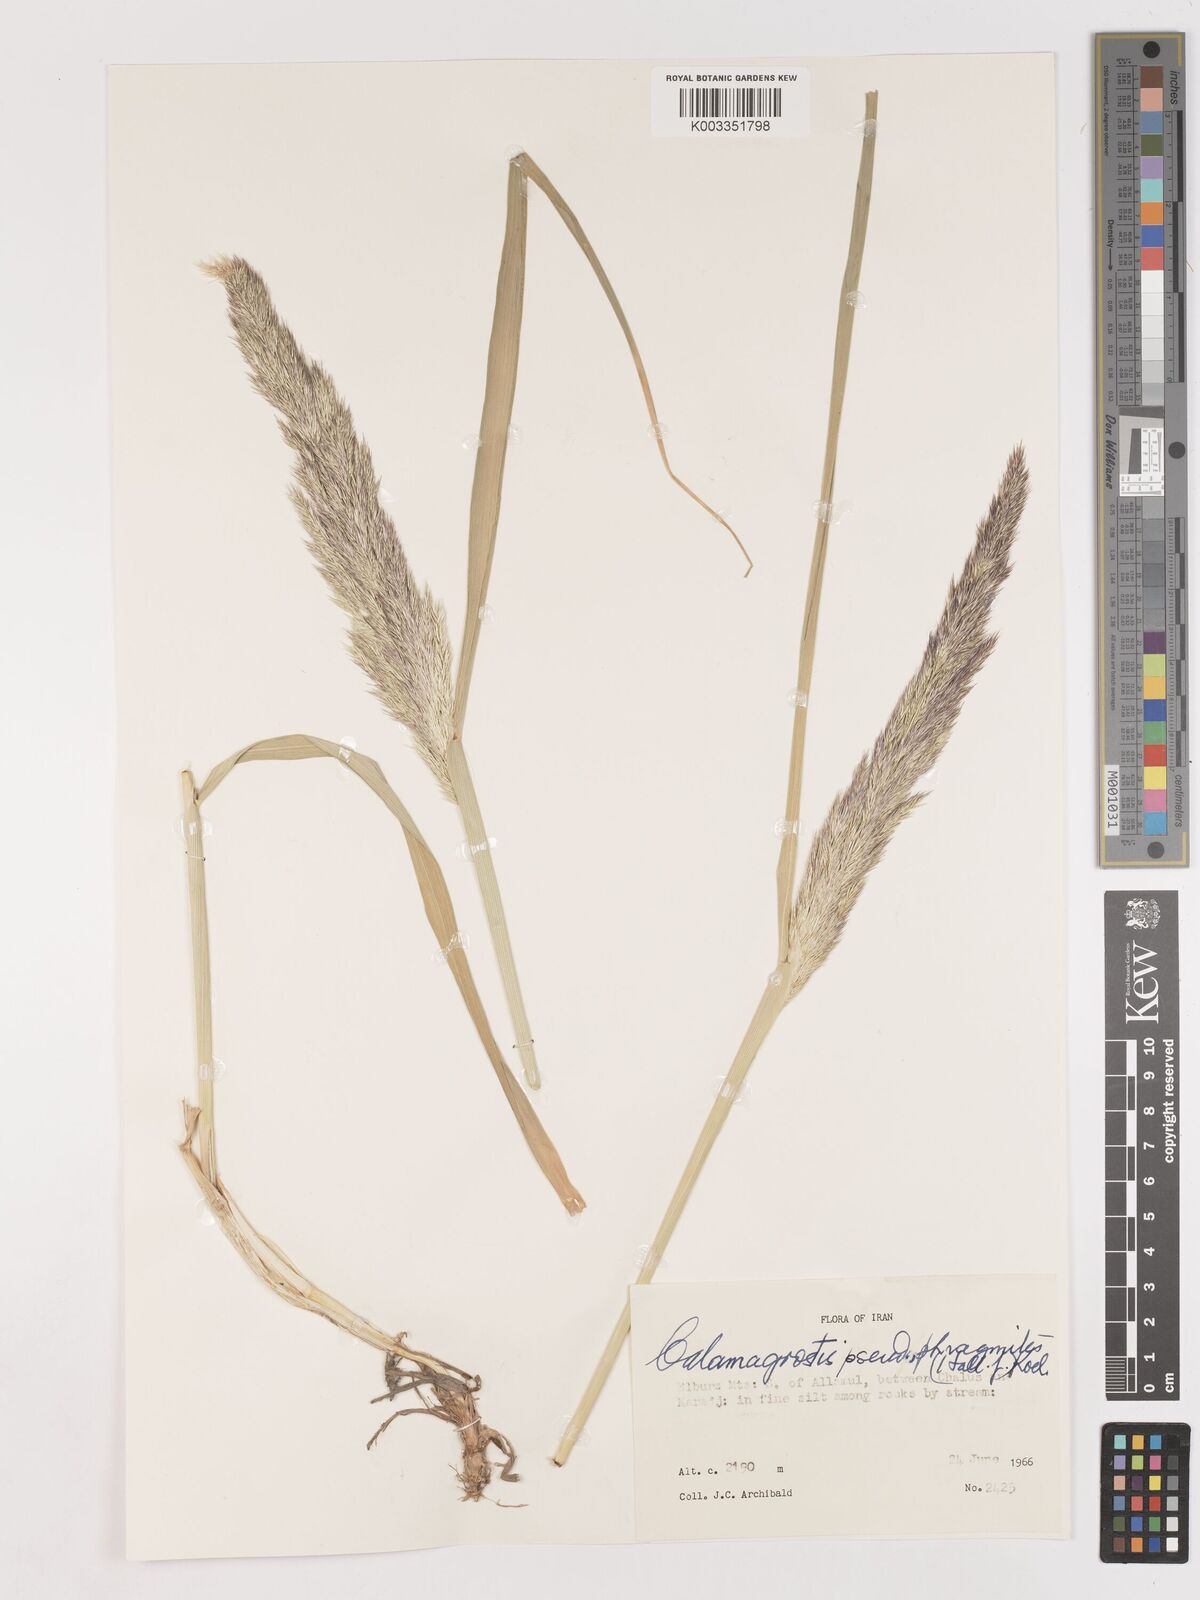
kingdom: Plantae
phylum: Tracheophyta
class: Liliopsida
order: Poales
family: Poaceae
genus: Calamagrostis
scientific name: Calamagrostis pseudophragmites
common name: Coastal small-reed
